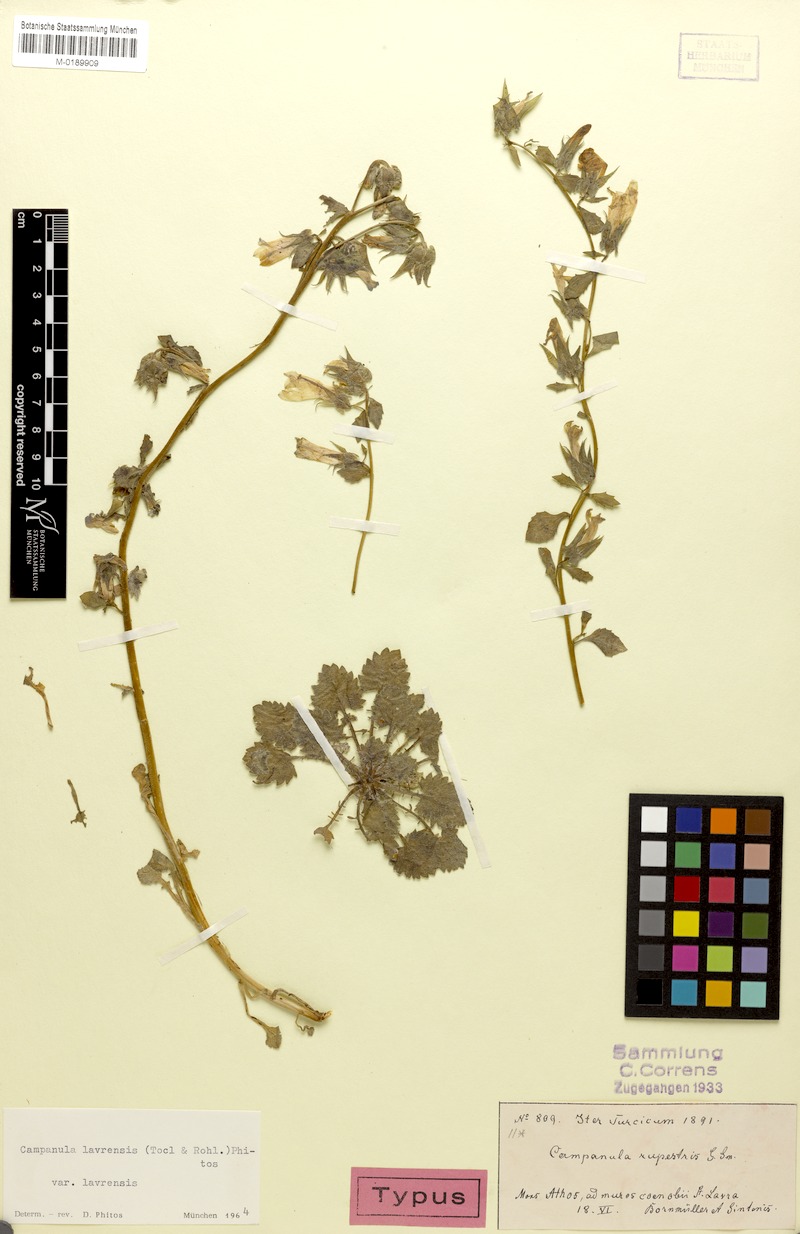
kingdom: Plantae
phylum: Tracheophyta
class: Magnoliopsida
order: Asterales
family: Campanulaceae
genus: Campanula
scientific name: Campanula lavrensis
